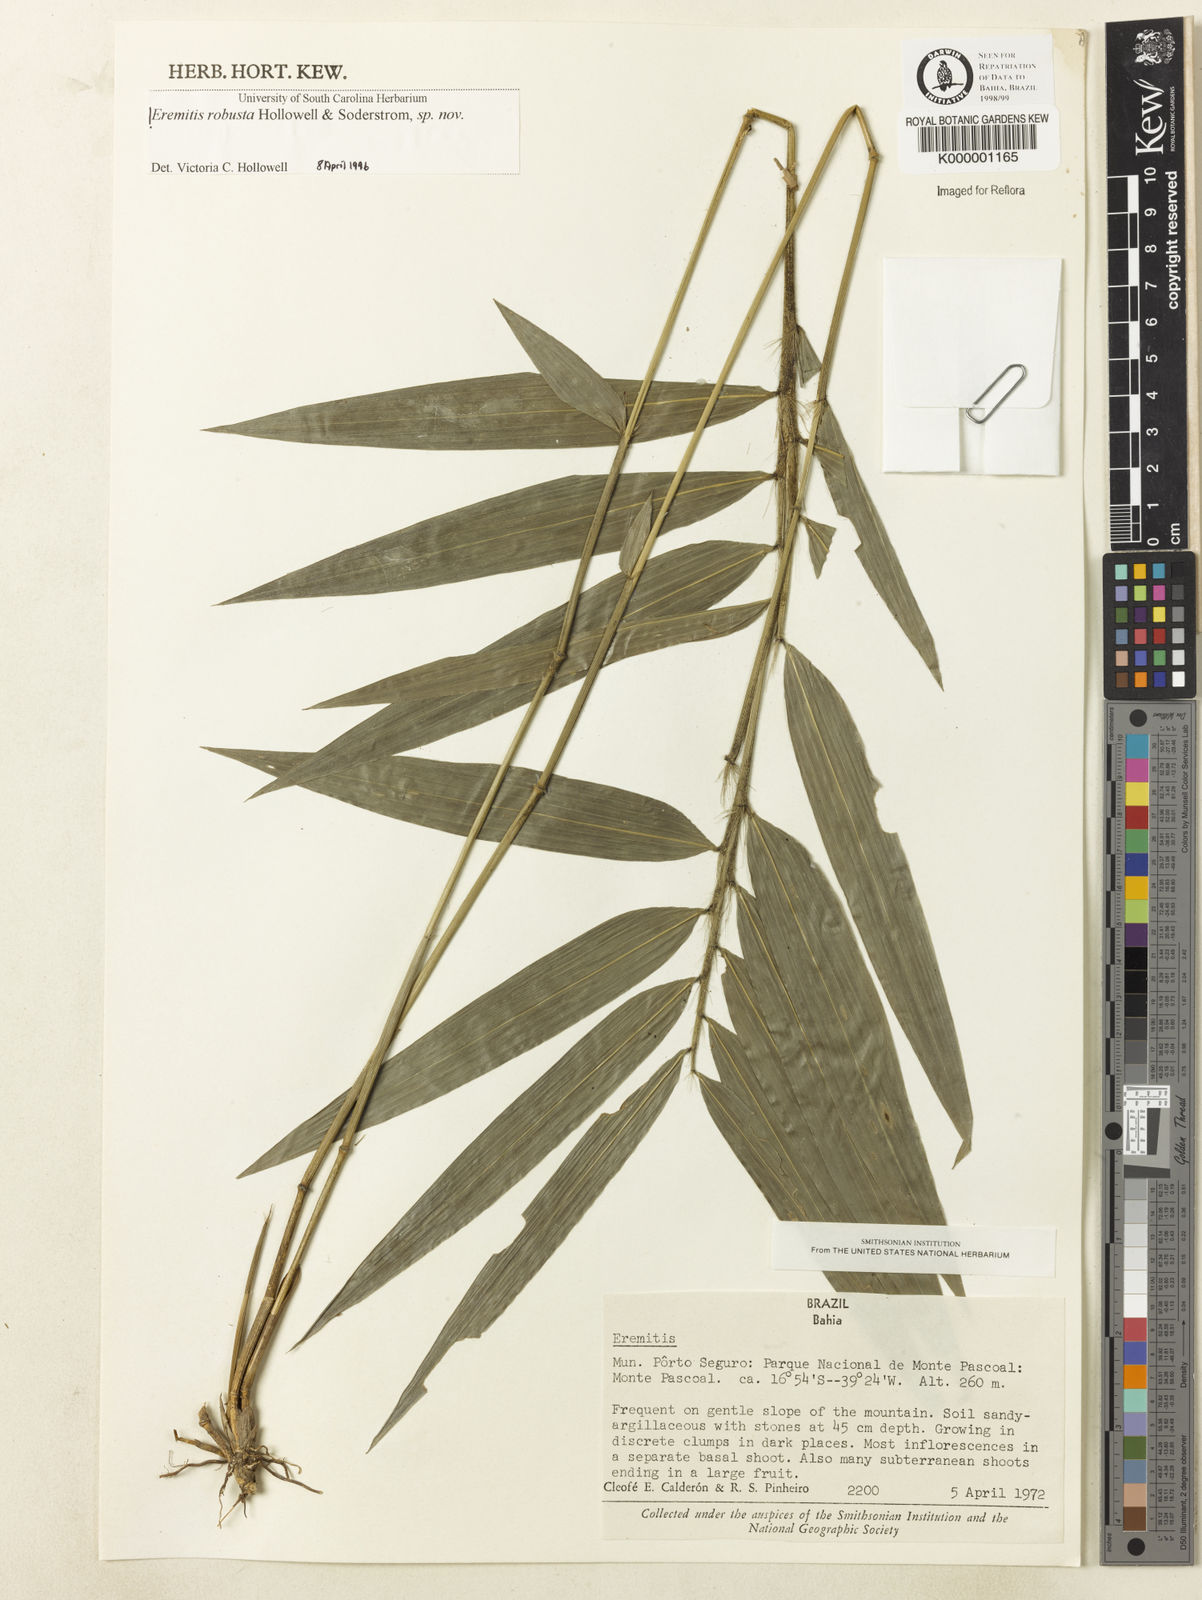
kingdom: Plantae
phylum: Tracheophyta
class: Liliopsida
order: Poales
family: Poaceae
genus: Eremitis
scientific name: Eremitis
